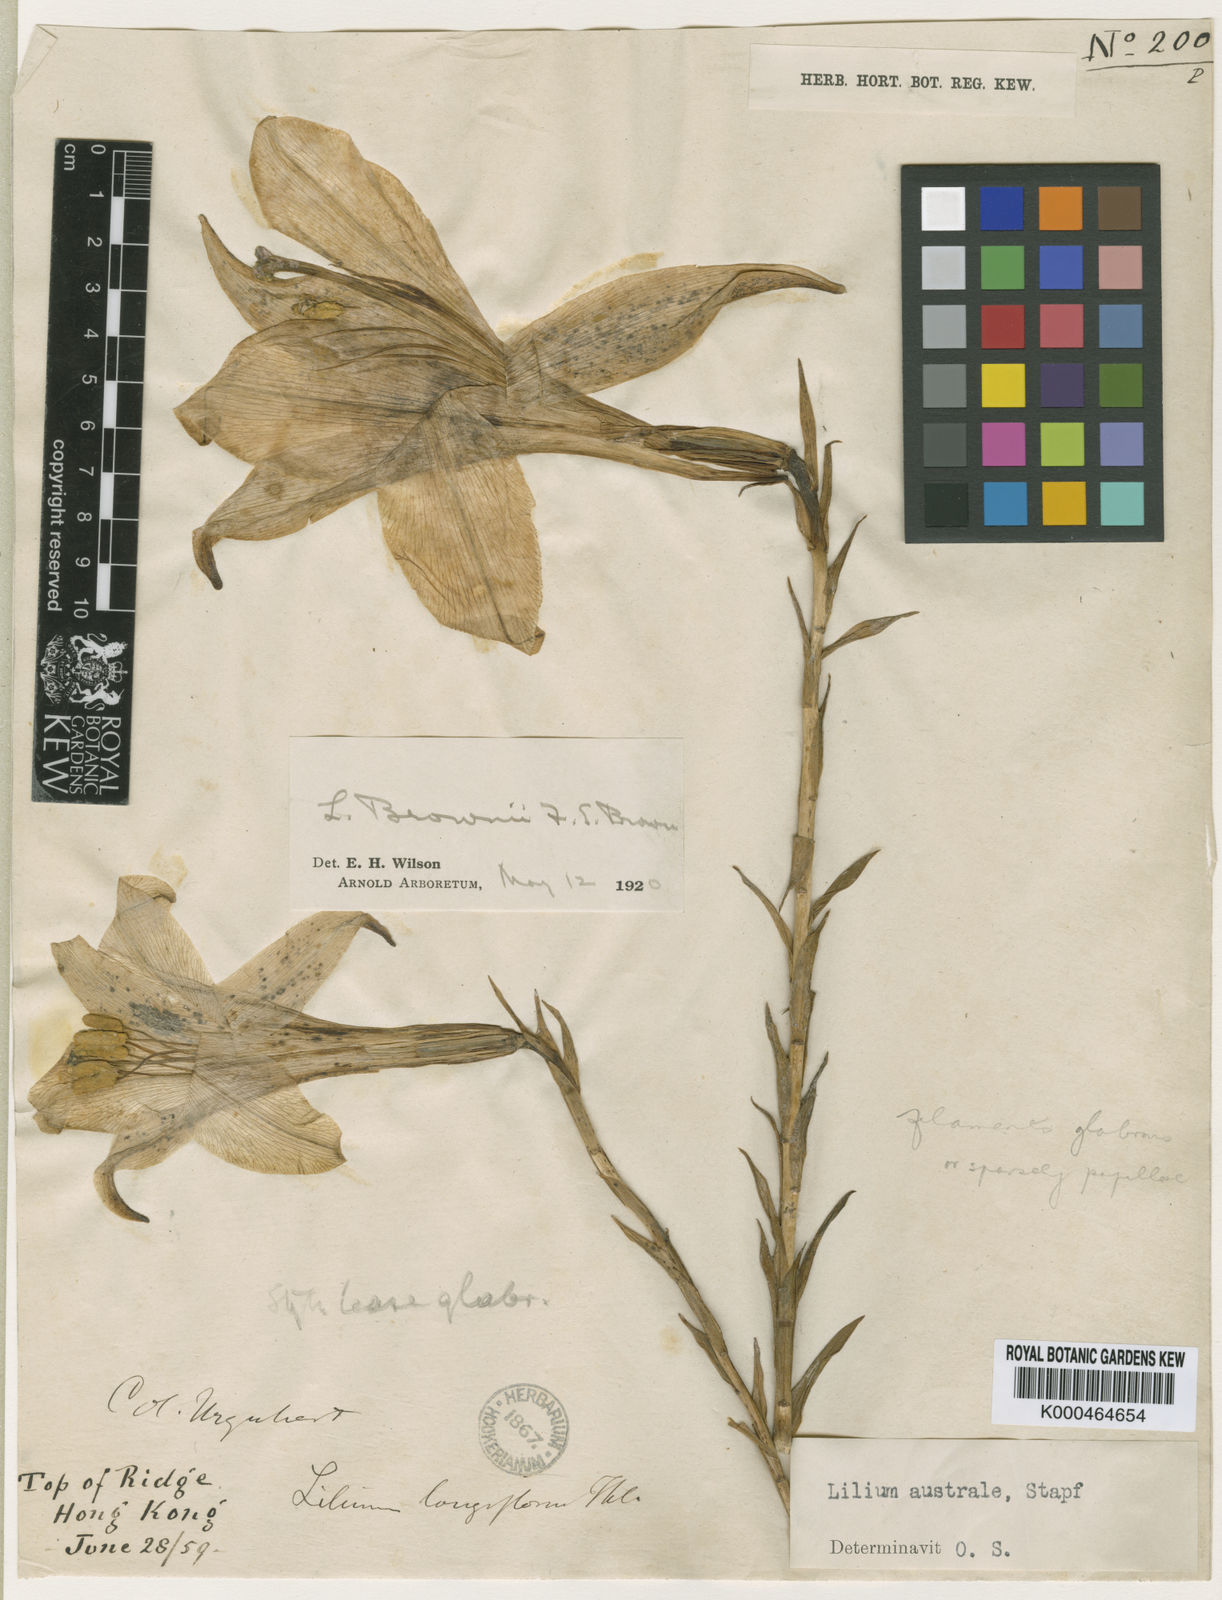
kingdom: Plantae
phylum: Tracheophyta
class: Liliopsida
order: Liliales
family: Liliaceae
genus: Lilium
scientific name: Lilium
